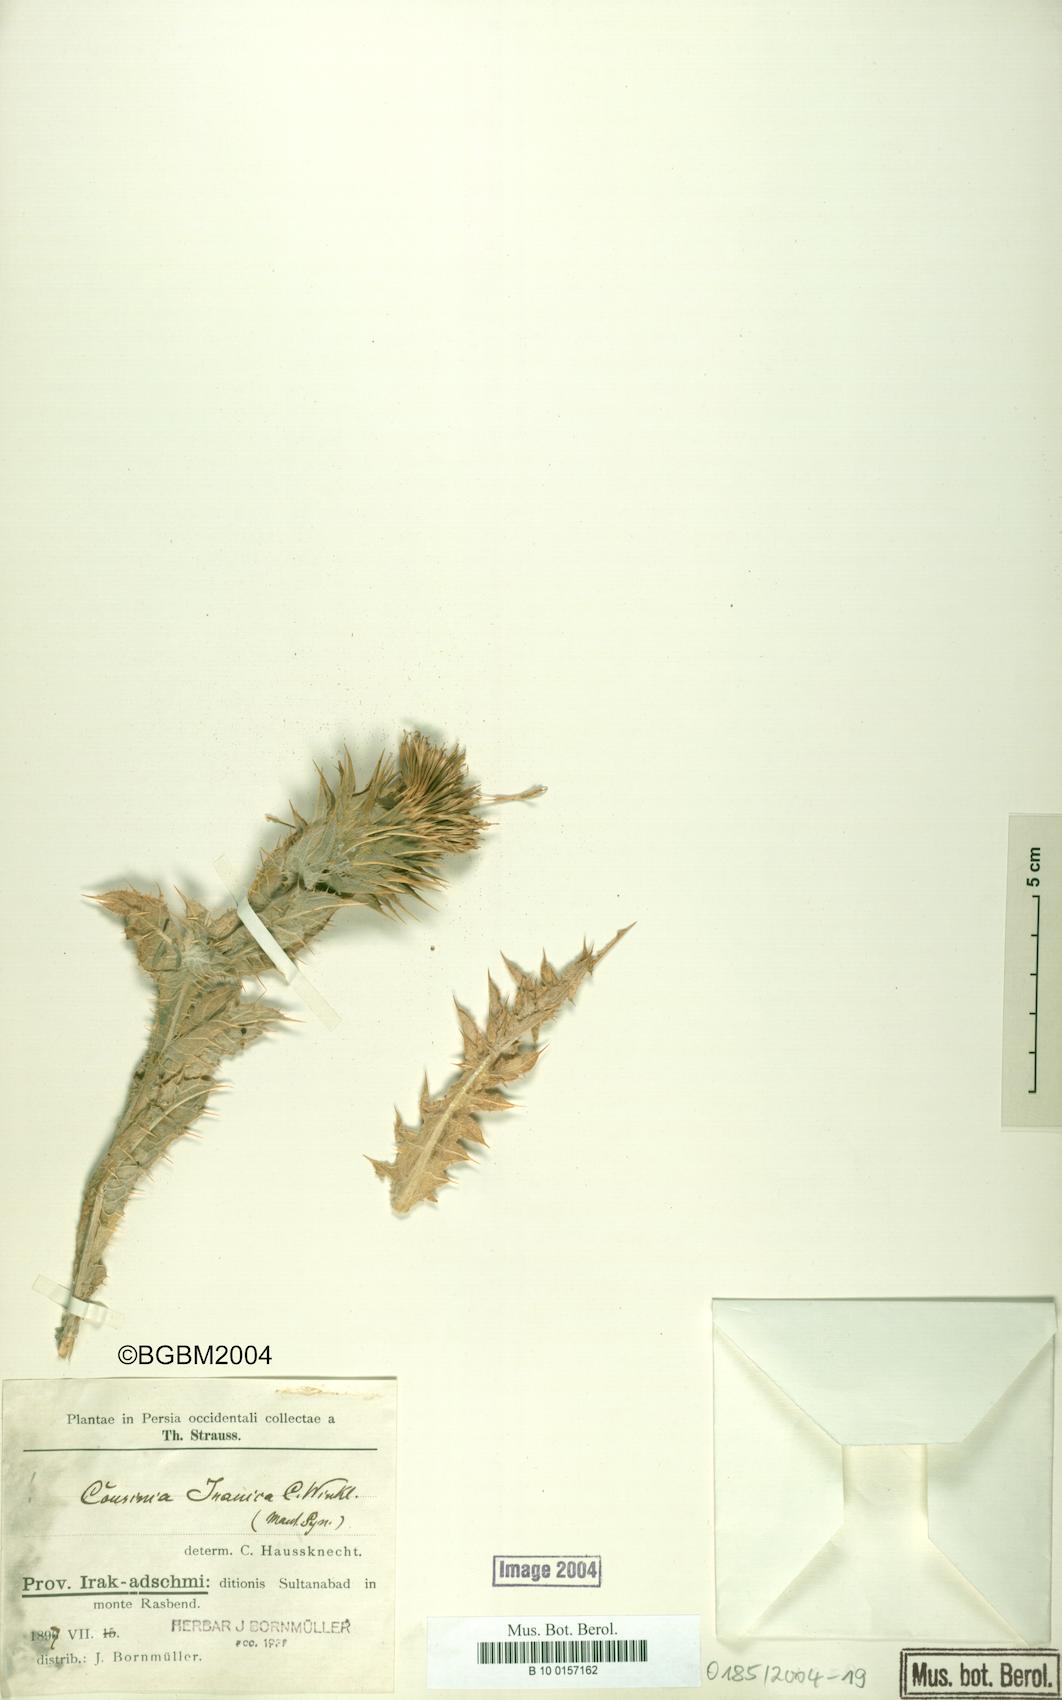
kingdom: Plantae
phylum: Tracheophyta
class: Magnoliopsida
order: Asterales
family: Asteraceae
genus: Cousinia
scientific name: Cousinia sagittata
